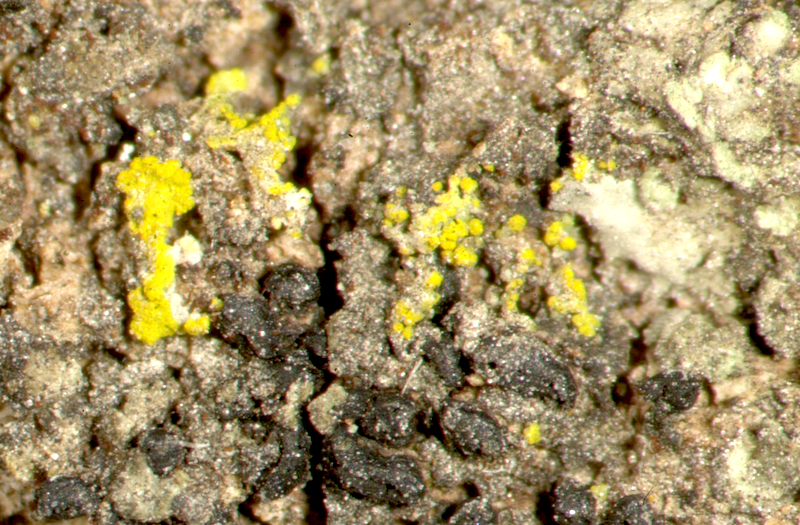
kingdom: Fungi
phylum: Ascomycota
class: Candelariomycetes
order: Candelariales
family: Candelariaceae
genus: Candelaria
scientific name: Candelaria concolor
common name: Candleflame lichen
